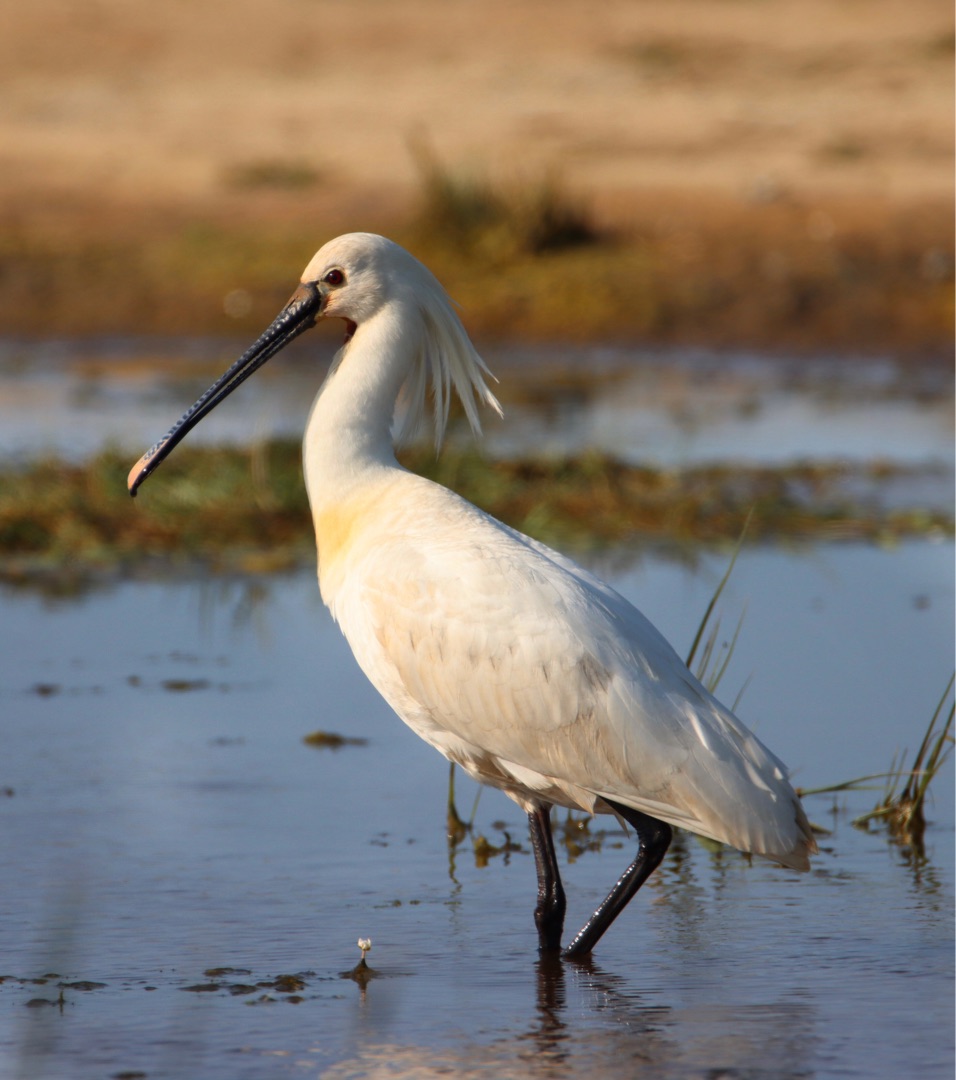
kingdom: Animalia
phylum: Chordata
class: Aves
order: Pelecaniformes
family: Threskiornithidae
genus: Platalea
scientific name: Platalea leucorodia
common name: Skestork
